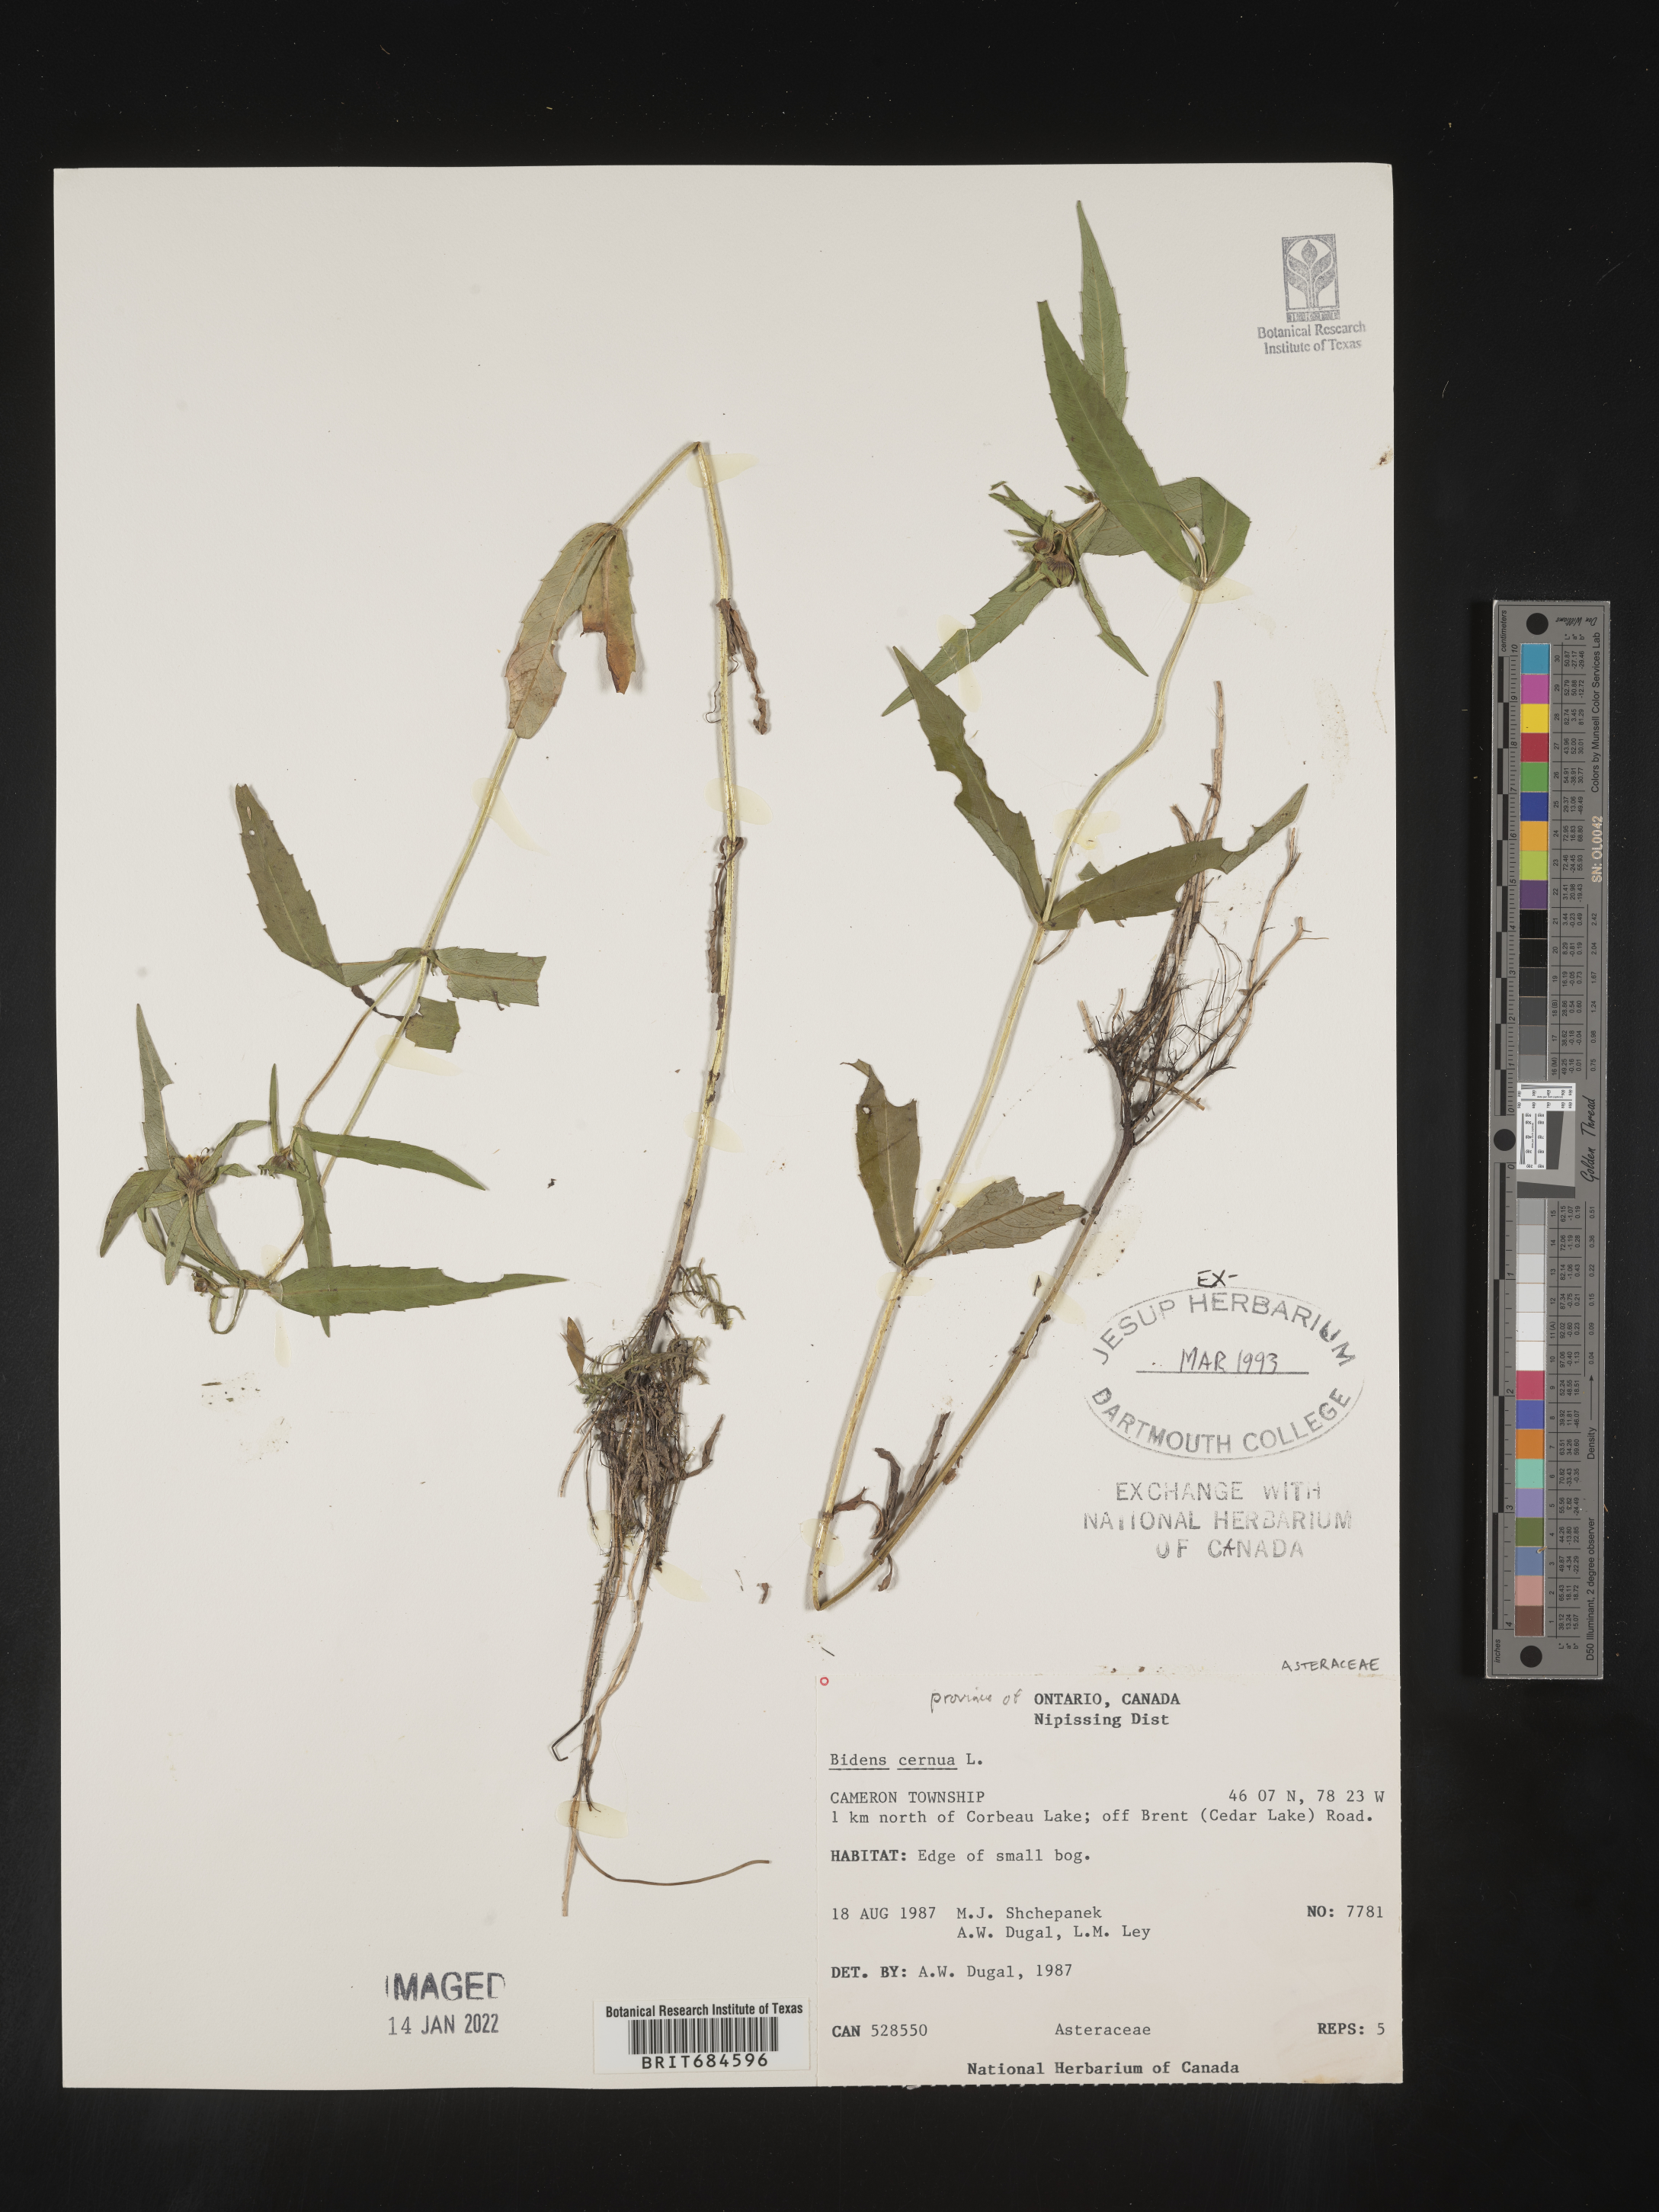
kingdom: Plantae
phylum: Tracheophyta
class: Magnoliopsida
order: Asterales
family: Asteraceae
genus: Bidens
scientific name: Bidens cernua
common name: Nodding bur-marigold
